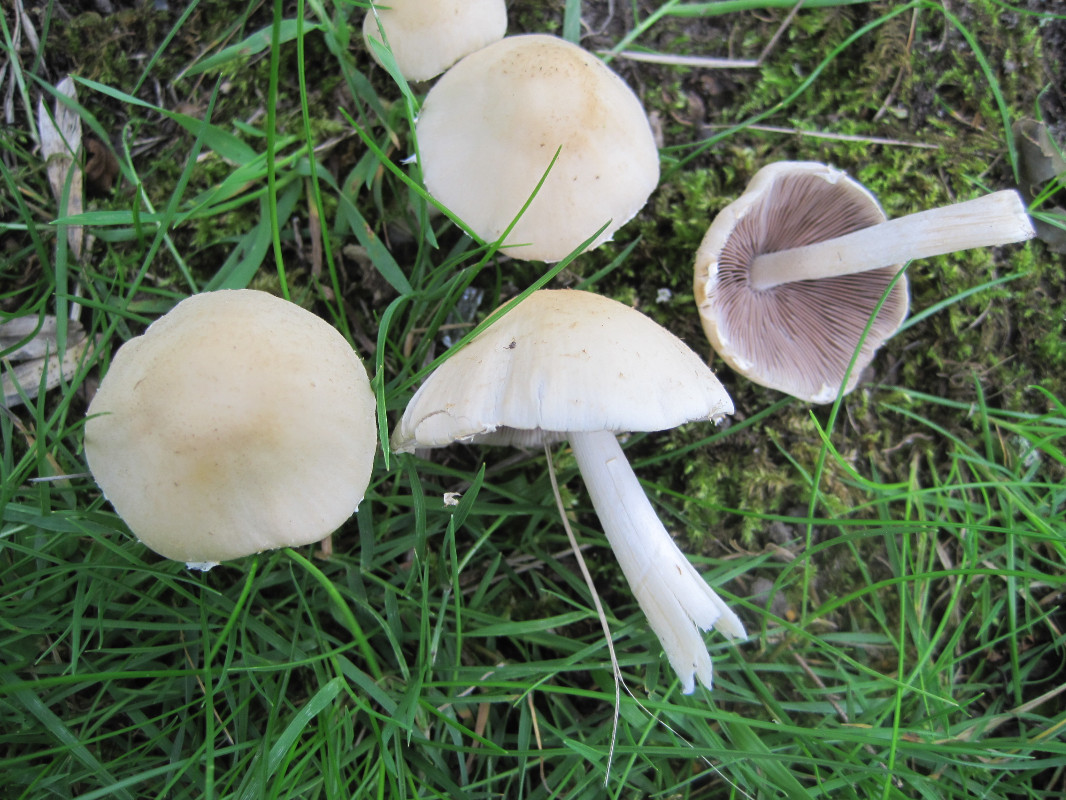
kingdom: Fungi
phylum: Basidiomycota
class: Agaricomycetes
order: Agaricales
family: Psathyrellaceae
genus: Candolleomyces
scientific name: Candolleomyces candolleanus
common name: Candolles mørkhat
